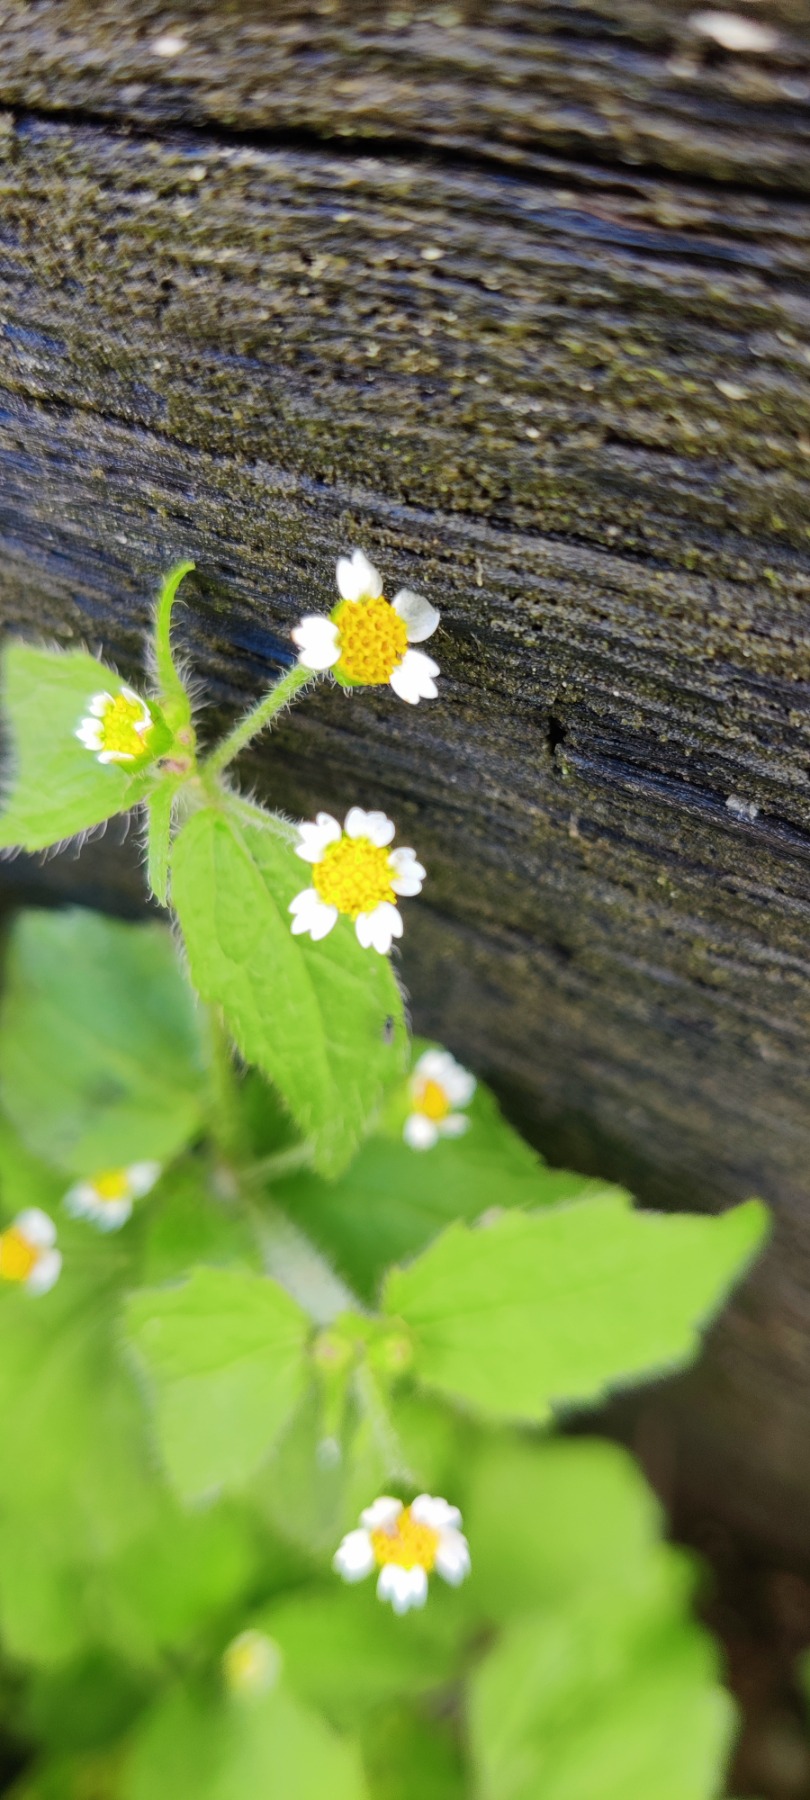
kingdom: Plantae
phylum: Tracheophyta
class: Magnoliopsida
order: Asterales
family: Asteraceae
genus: Galinsoga
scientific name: Galinsoga quadriradiata
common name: Kirtel-kortstråle
